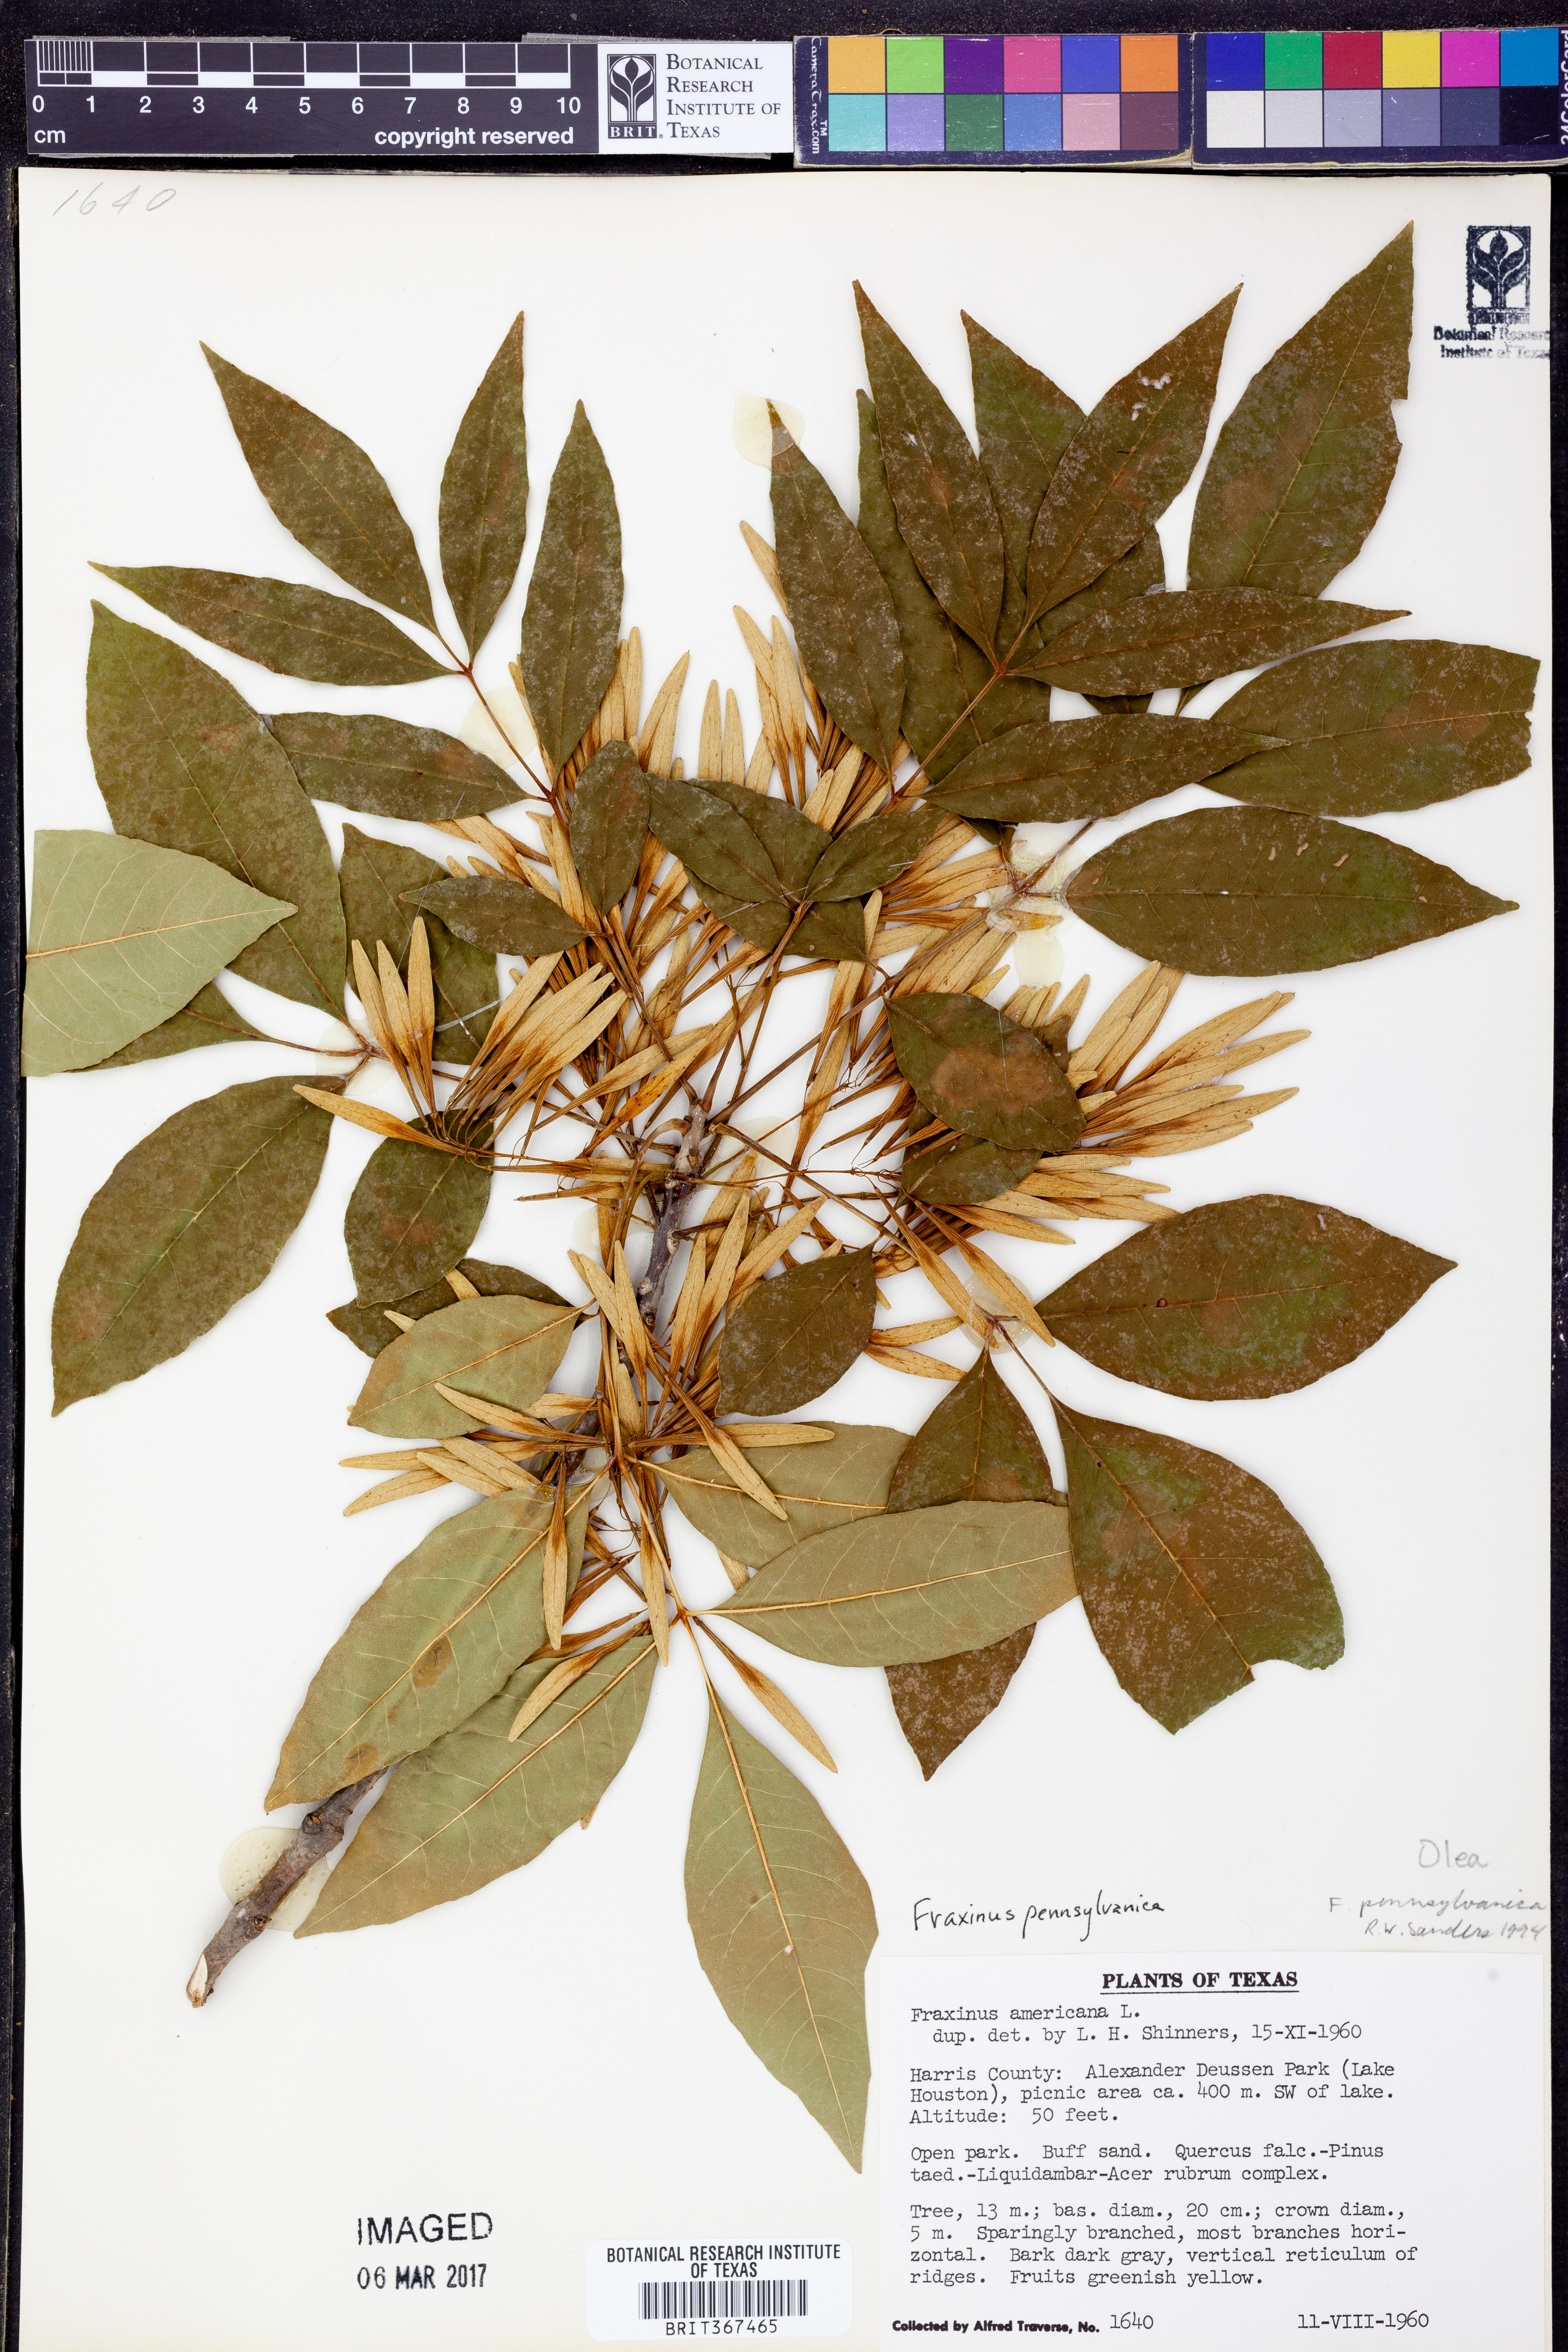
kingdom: Plantae
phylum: Tracheophyta
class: Magnoliopsida
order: Lamiales
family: Oleaceae
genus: Fraxinus
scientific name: Fraxinus pennsylvanica
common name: Green ash
